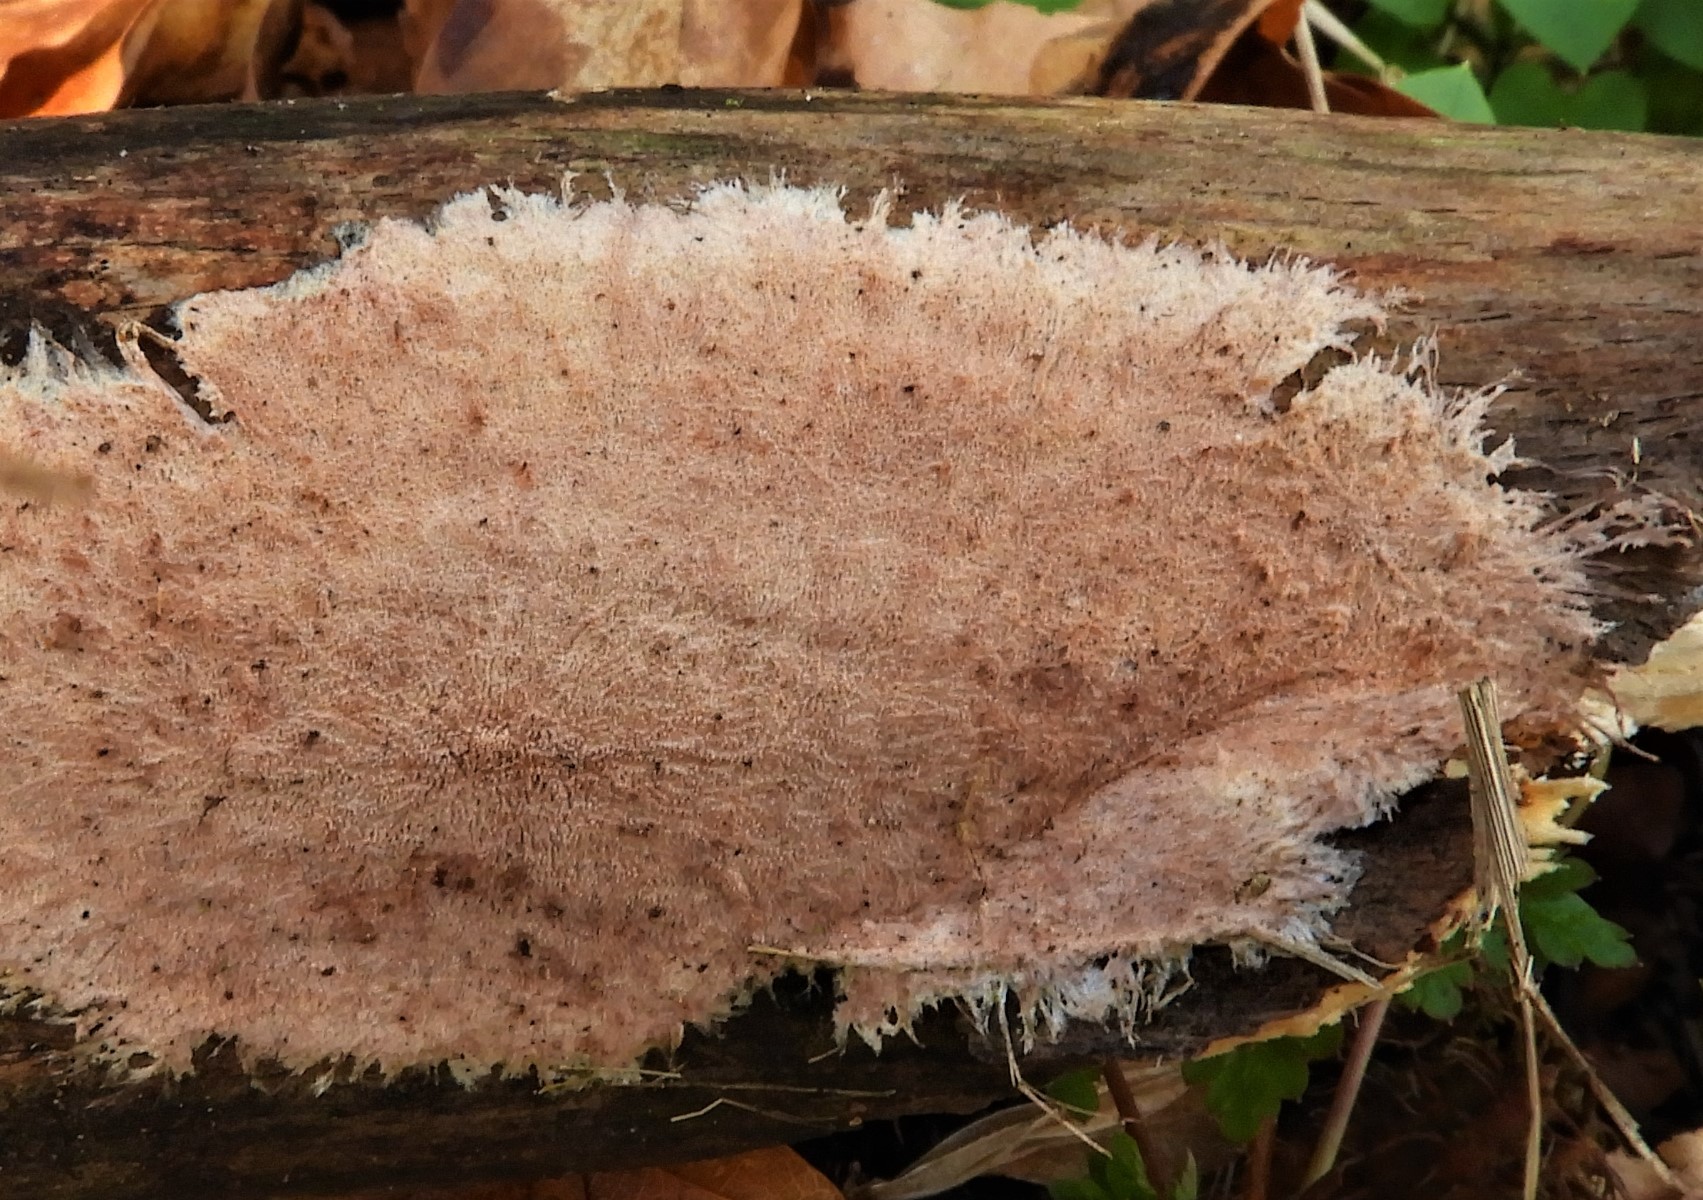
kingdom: Fungi
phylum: Basidiomycota
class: Agaricomycetes
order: Polyporales
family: Steccherinaceae
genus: Steccherinum
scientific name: Steccherinum fimbriatum
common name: trådet skønpig
